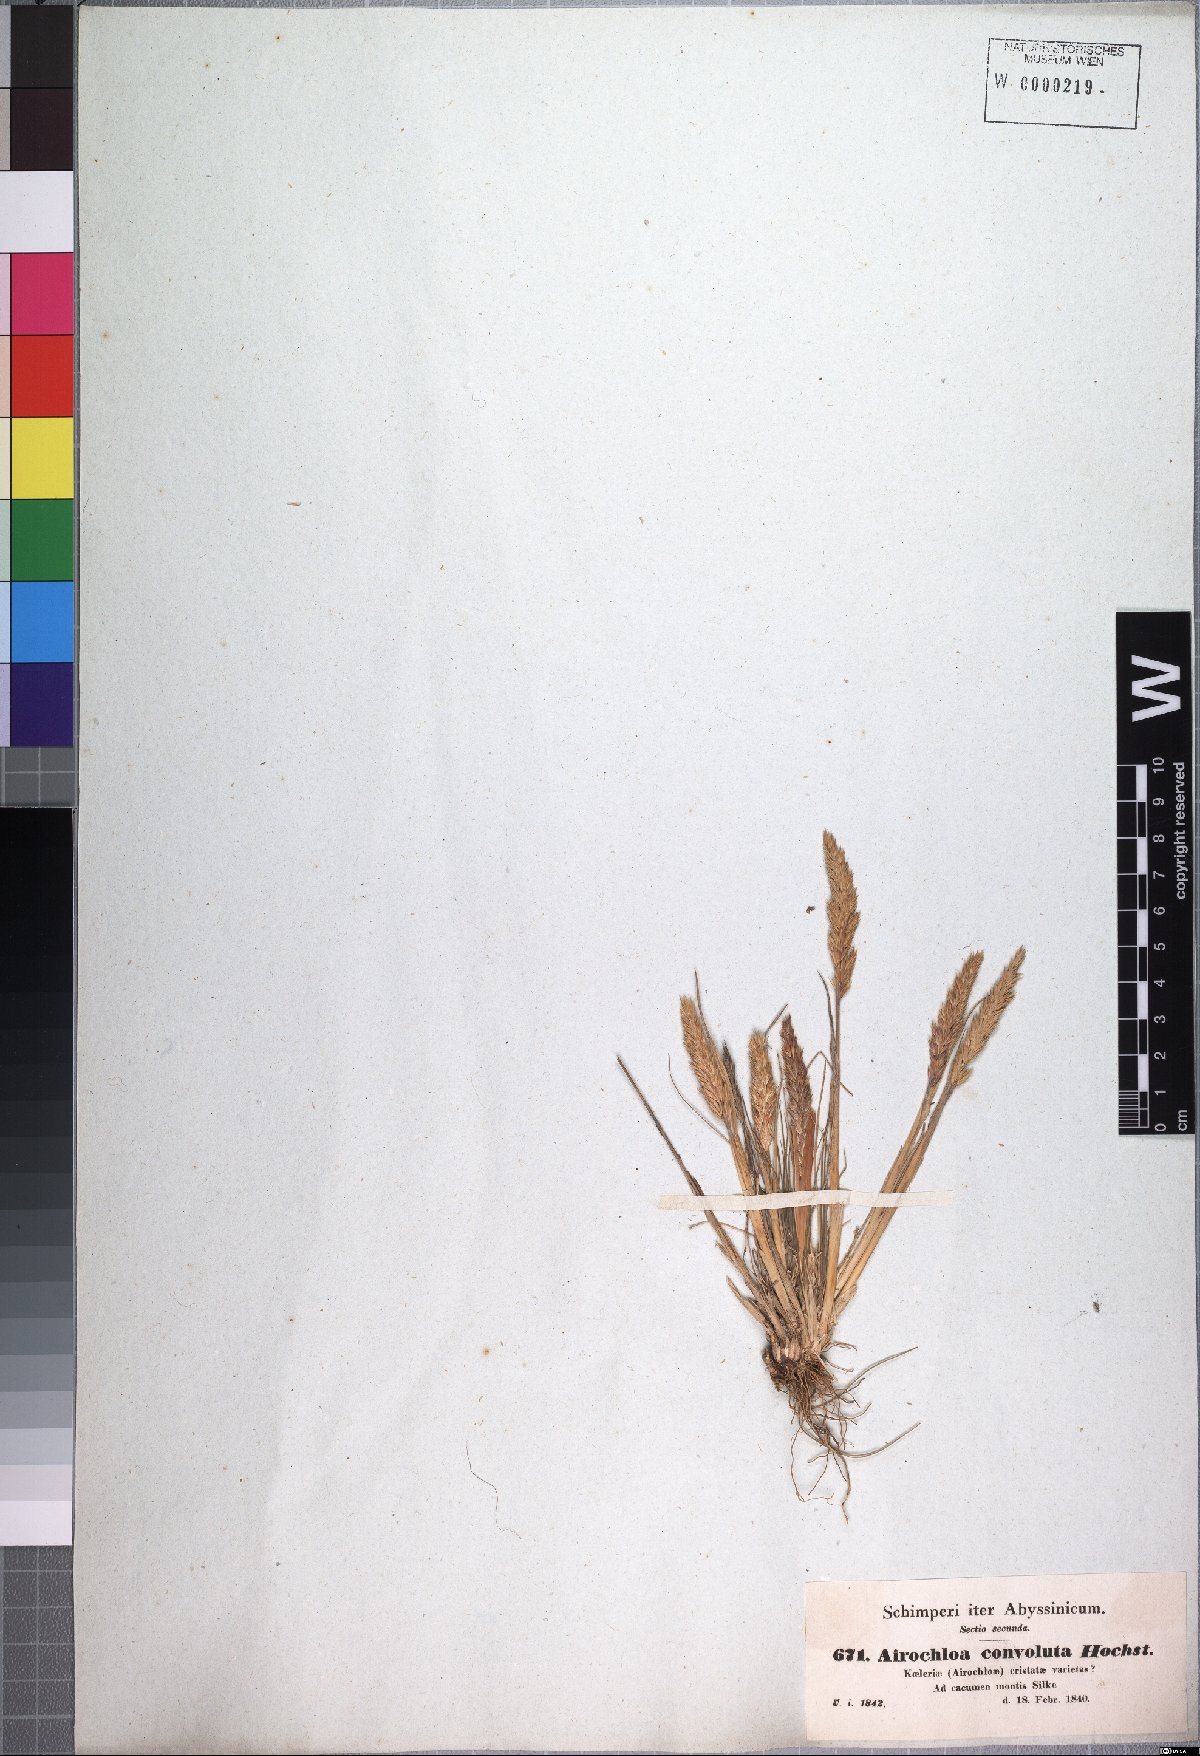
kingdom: Plantae
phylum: Tracheophyta
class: Liliopsida
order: Poales
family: Poaceae
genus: Koeleria
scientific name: Koeleria capensis
